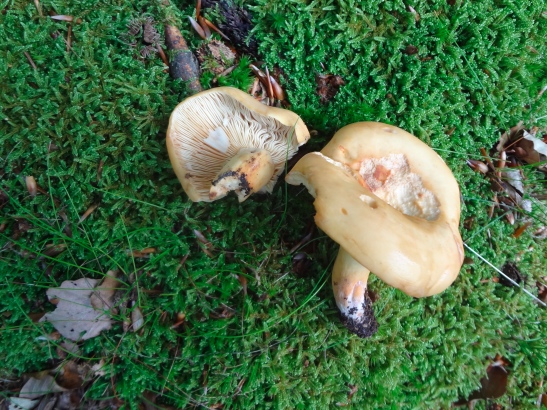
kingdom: Fungi
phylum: Basidiomycota
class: Agaricomycetes
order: Russulales
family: Russulaceae
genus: Lactifluus
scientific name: Lactifluus subvolemus
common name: hummer-mælkehat
